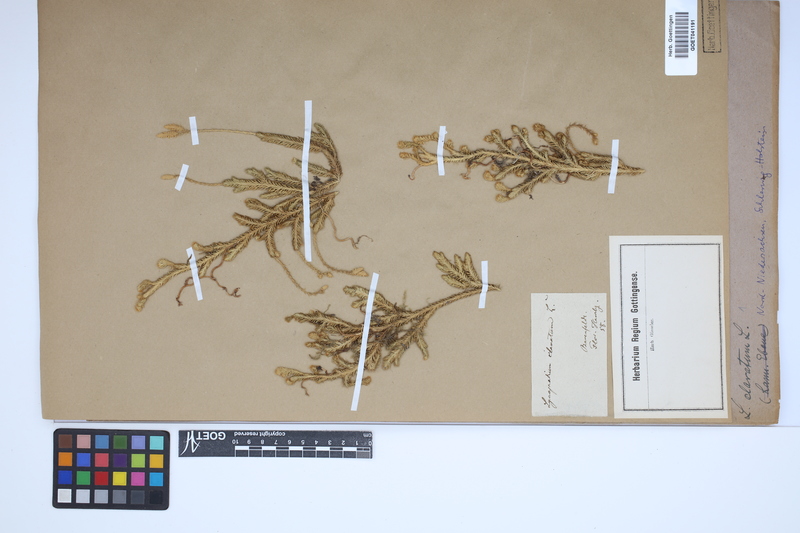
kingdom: Plantae
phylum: Tracheophyta
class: Lycopodiopsida
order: Lycopodiales
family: Lycopodiaceae
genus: Lycopodium
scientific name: Lycopodium clavatum
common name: Stag's-horn clubmoss
